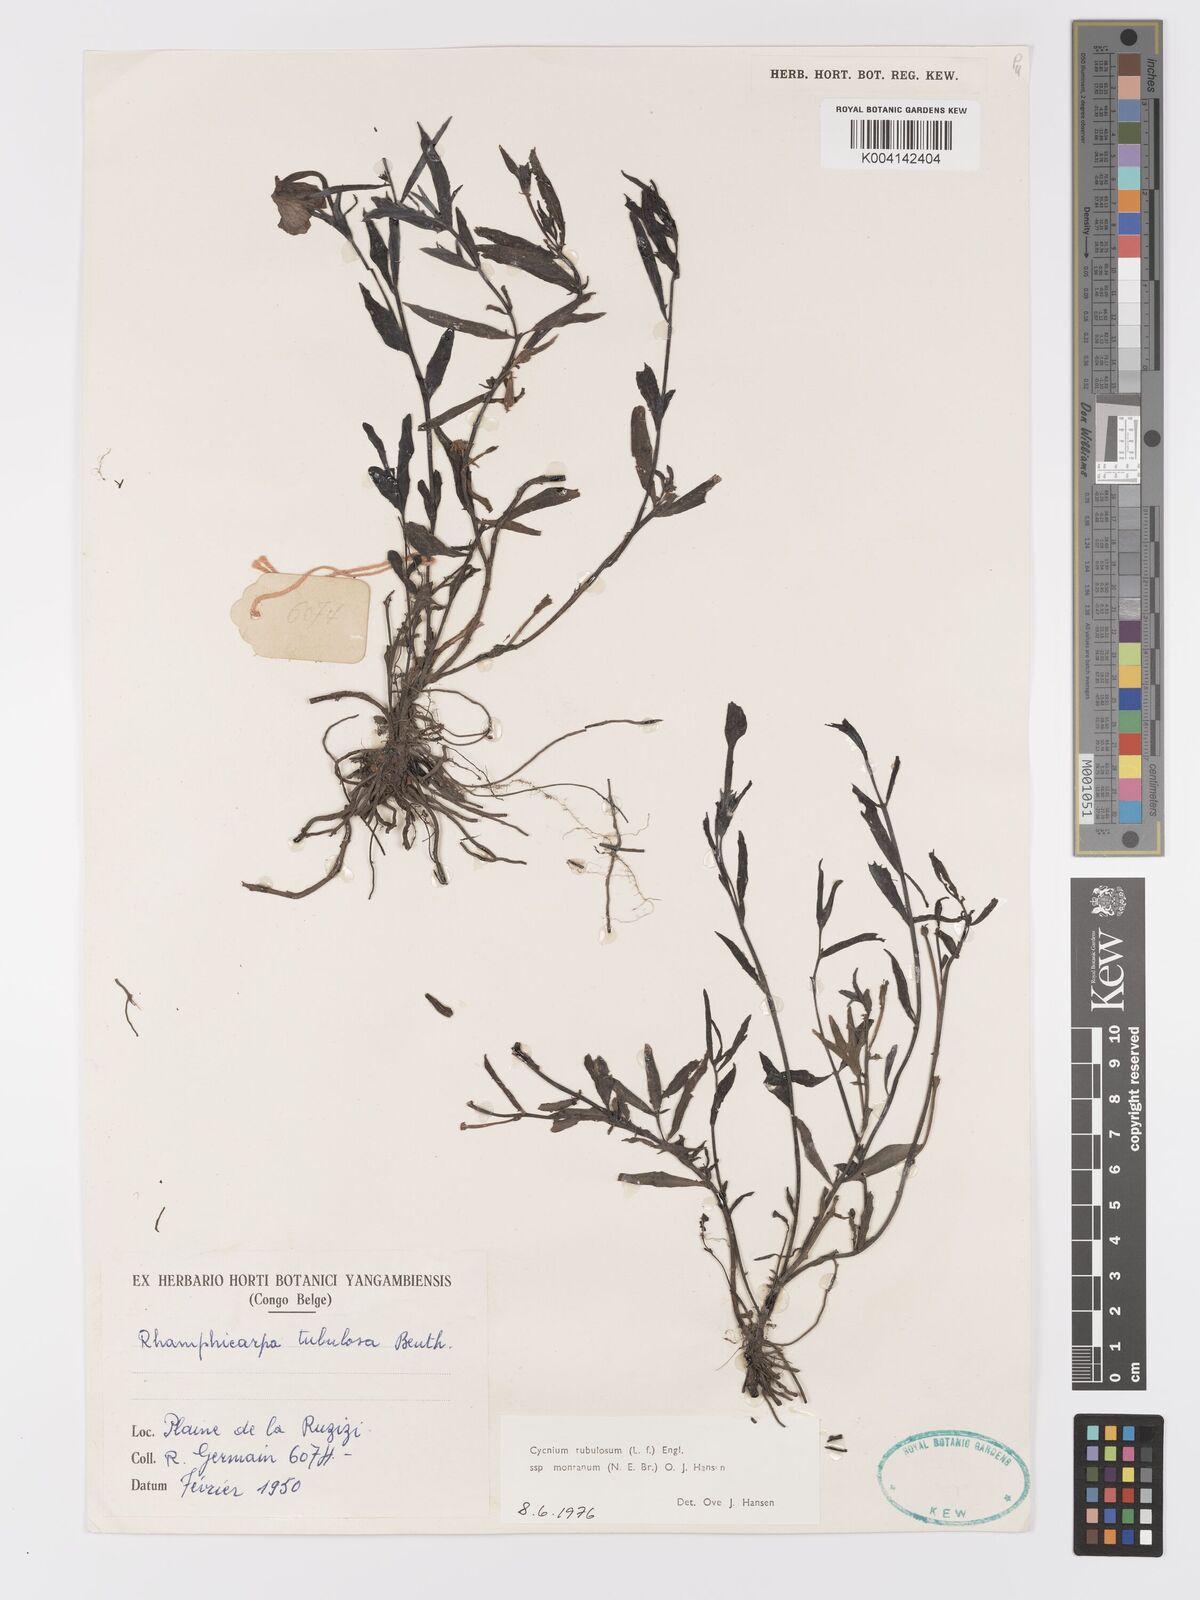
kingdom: Plantae
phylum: Tracheophyta
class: Magnoliopsida
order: Lamiales
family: Orobanchaceae
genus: Cycnium
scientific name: Cycnium tubulosum
